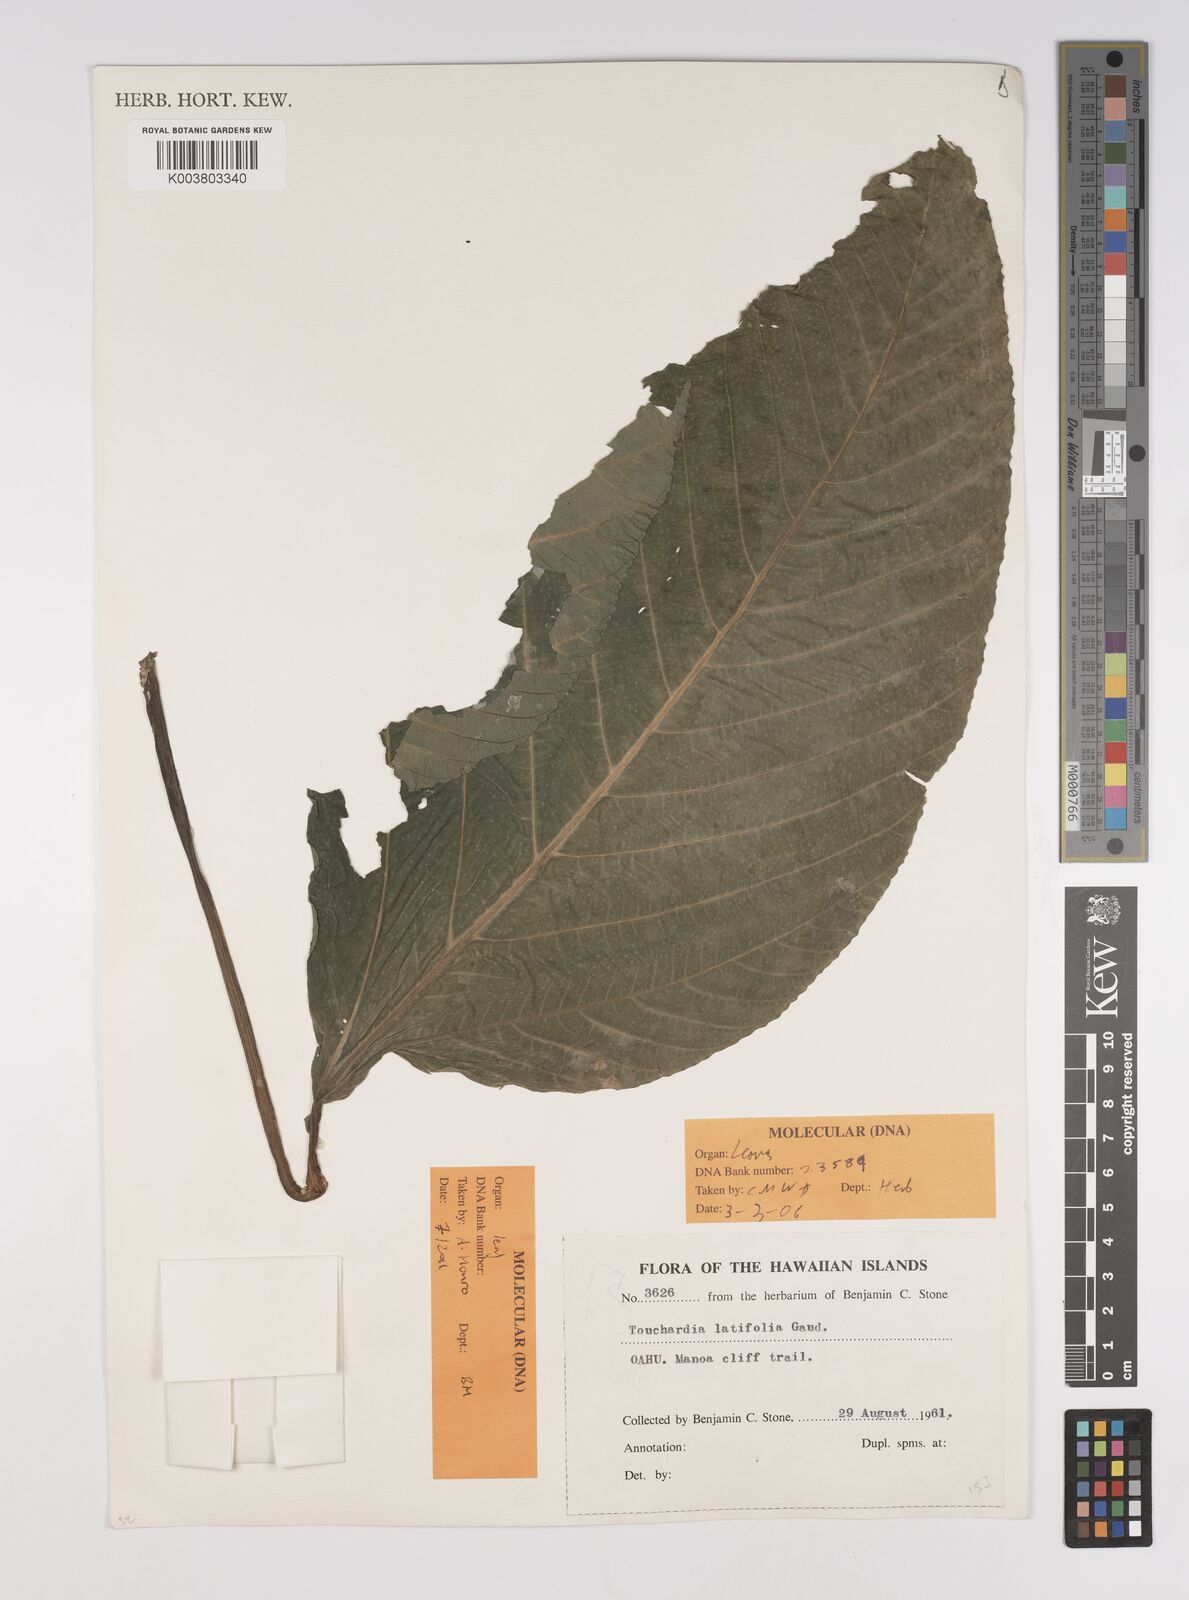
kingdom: Plantae
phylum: Tracheophyta
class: Magnoliopsida
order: Rosales
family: Urticaceae
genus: Touchardia
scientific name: Touchardia latifolia
